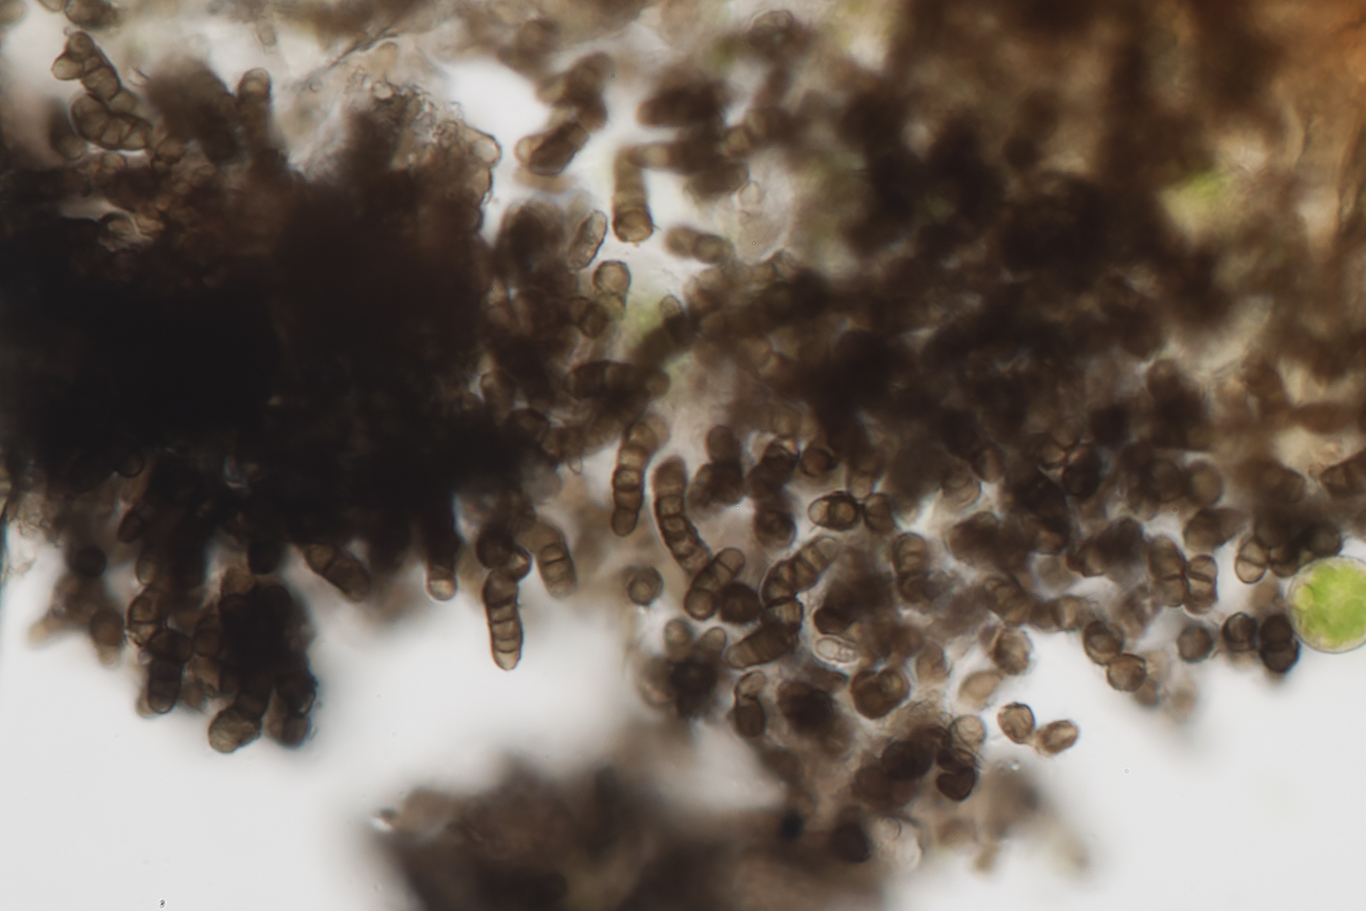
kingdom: Fungi
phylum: Ascomycota
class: Leotiomycetes
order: Helotiales
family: Mollisiaceae
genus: Trimmatostroma
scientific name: Trimmatostroma salicis
